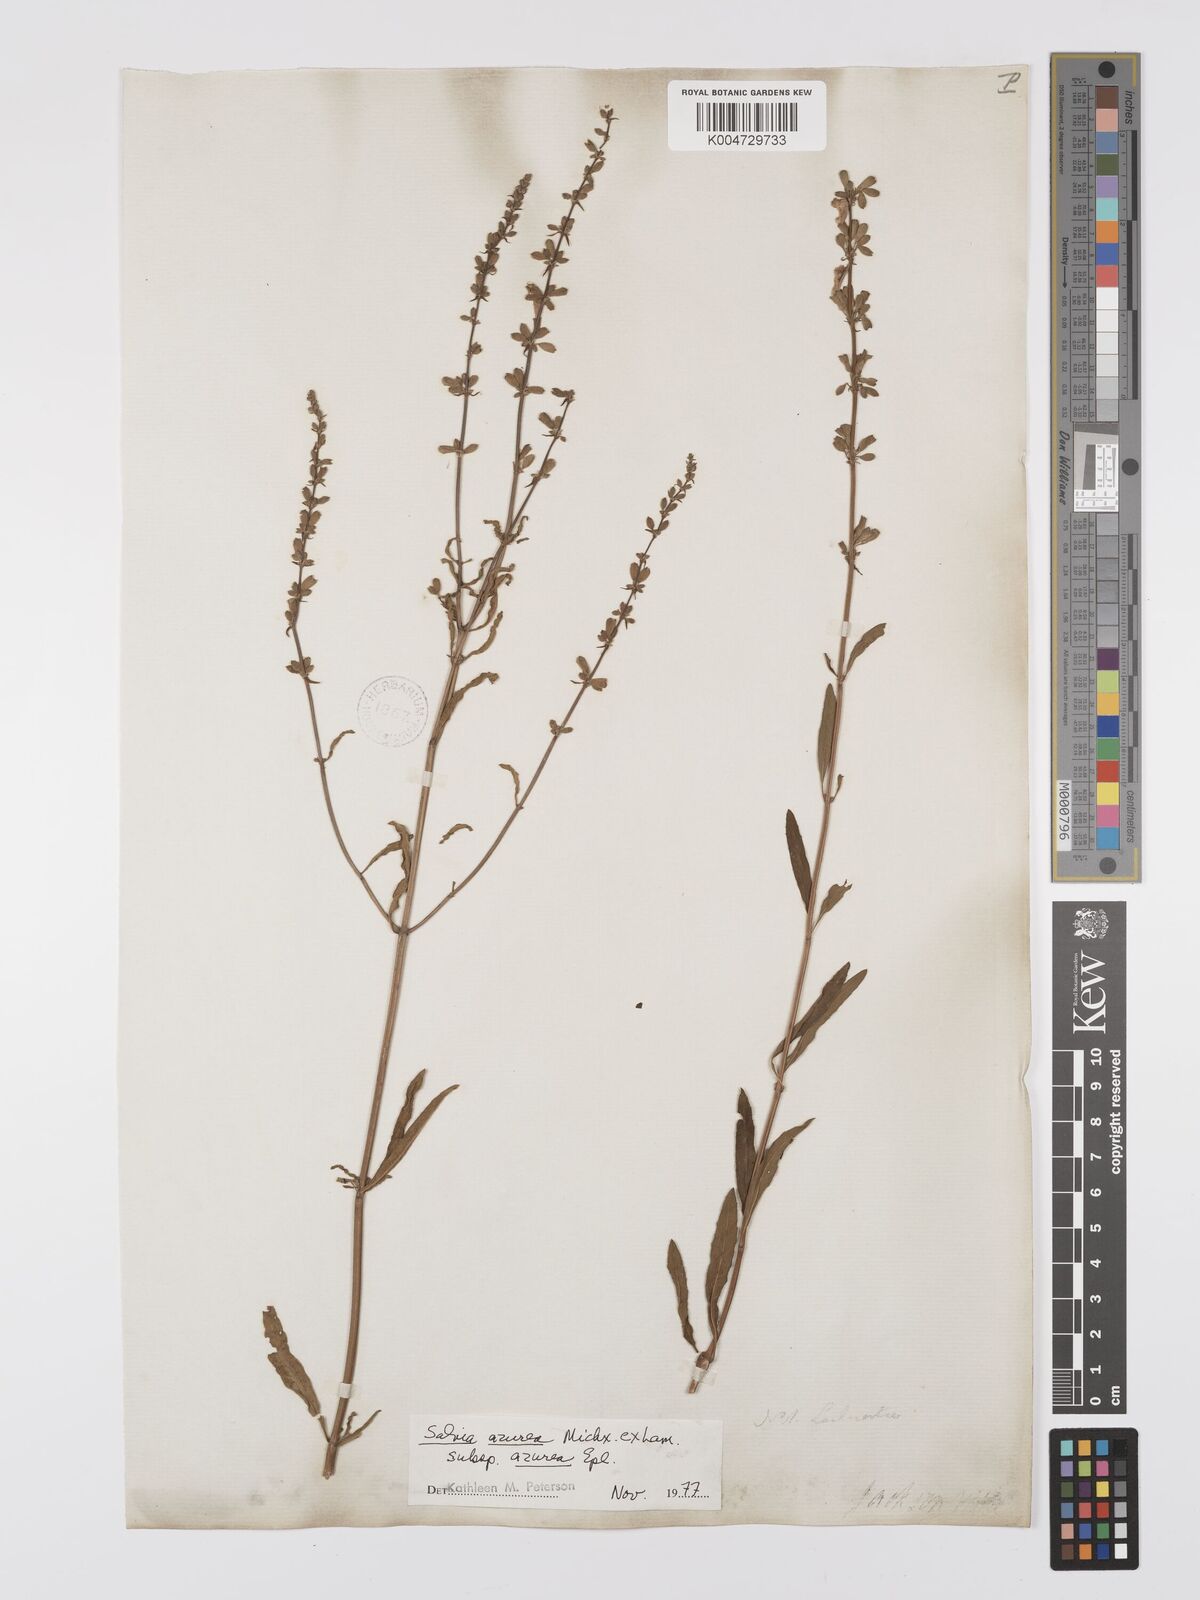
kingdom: Plantae
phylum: Tracheophyta
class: Magnoliopsida
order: Lamiales
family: Lamiaceae
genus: Salvia
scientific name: Salvia azurea
